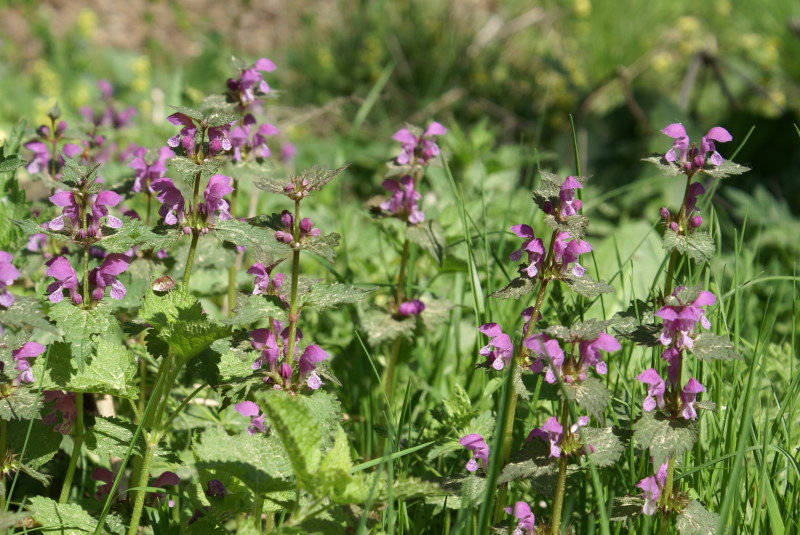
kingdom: Plantae
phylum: Tracheophyta
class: Magnoliopsida
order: Lamiales
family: Lamiaceae
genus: Lamium
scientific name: Lamium maculatum
